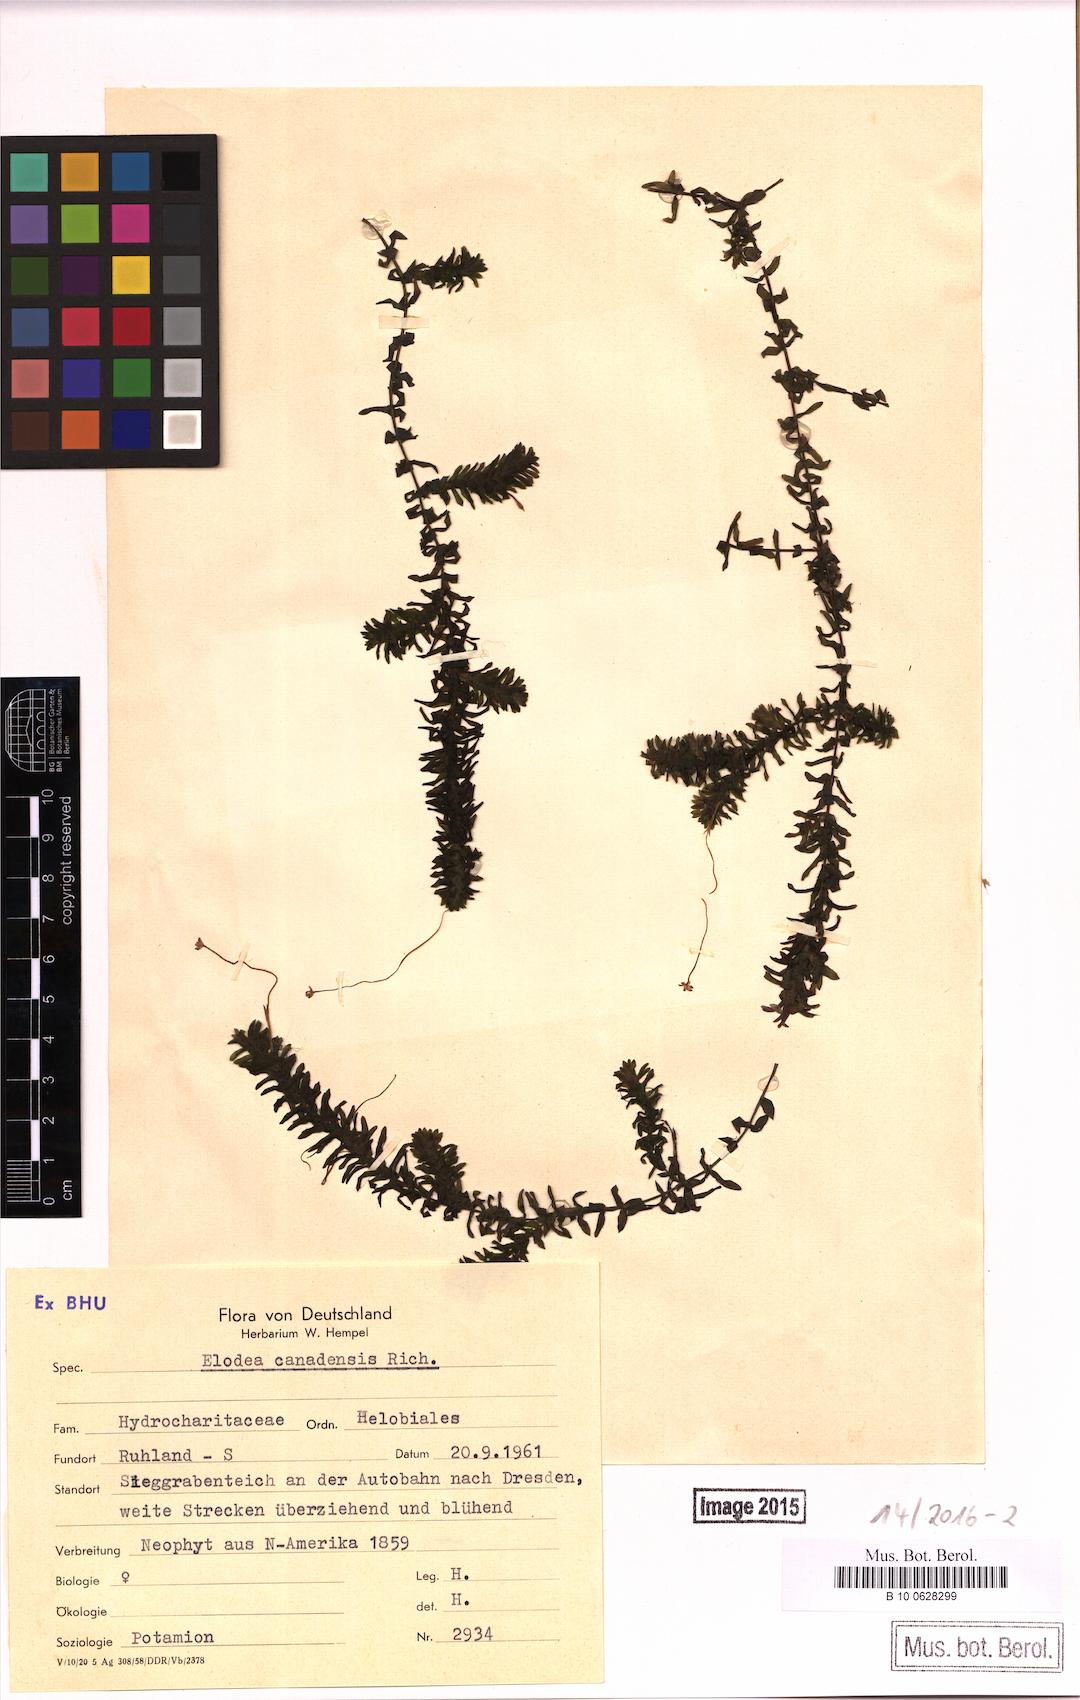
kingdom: Plantae
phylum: Tracheophyta
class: Liliopsida
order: Alismatales
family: Hydrocharitaceae
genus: Elodea
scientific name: Elodea canadensis
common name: Canadian waterweed
